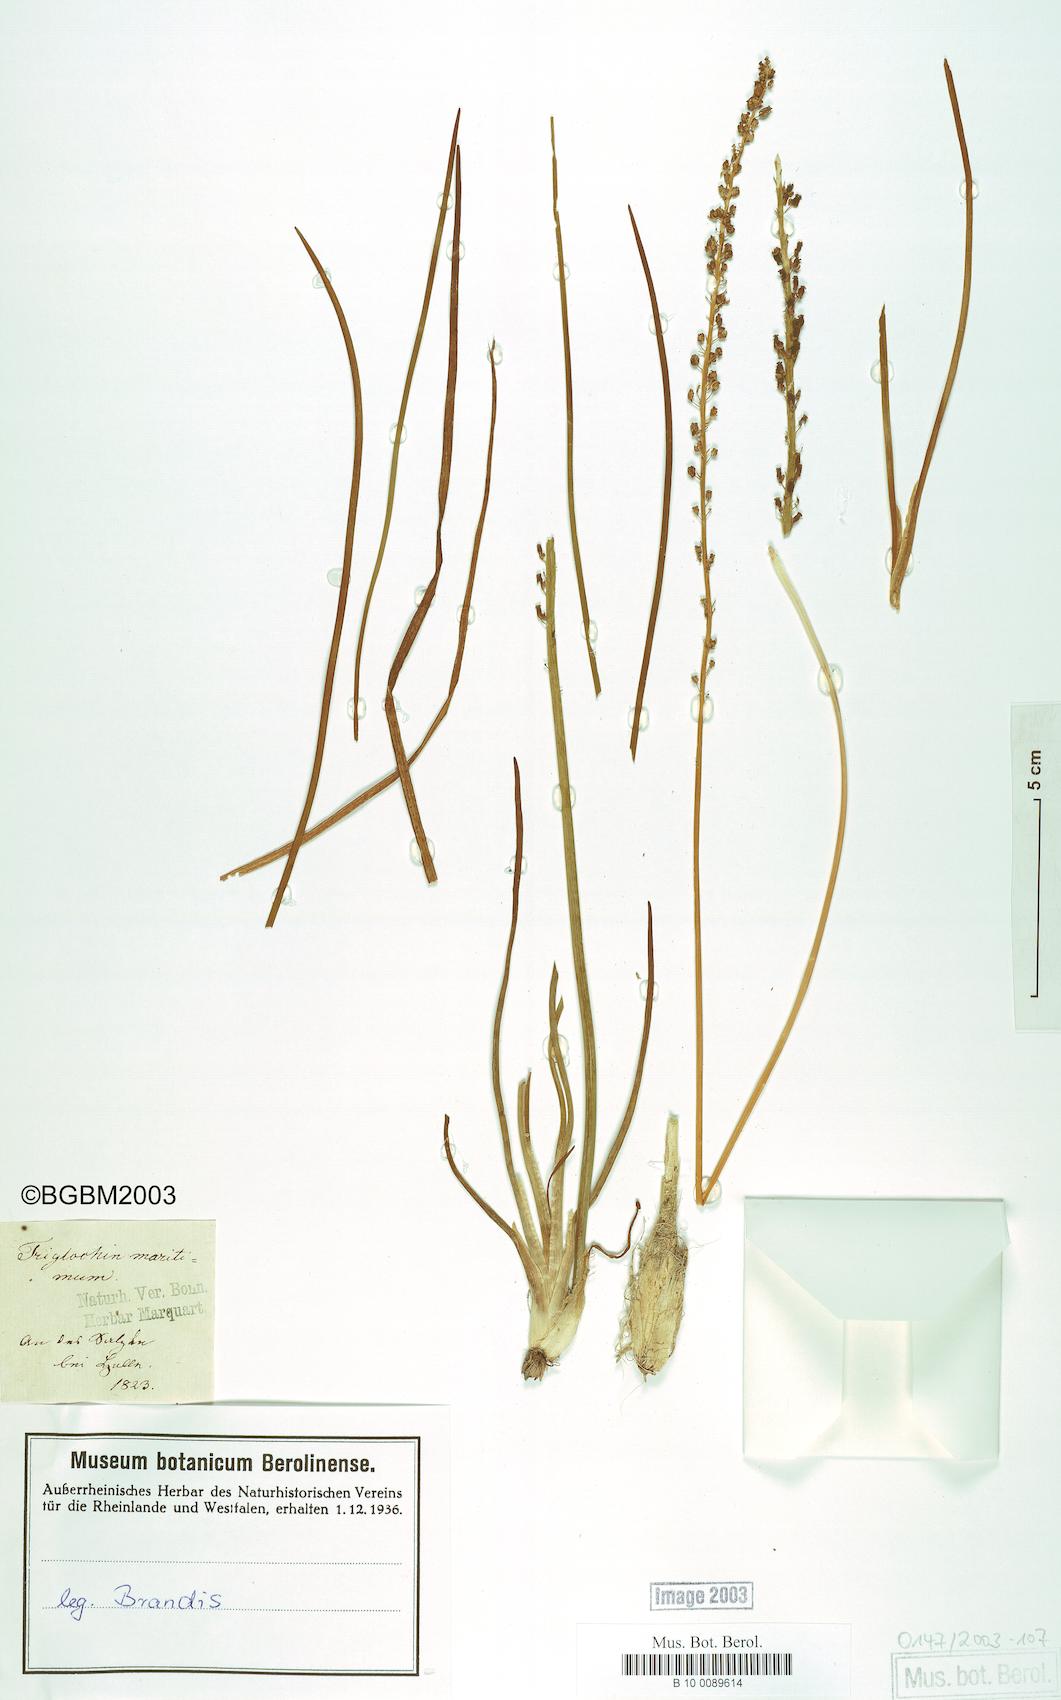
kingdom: Plantae
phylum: Tracheophyta
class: Liliopsida
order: Alismatales
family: Juncaginaceae
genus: Triglochin
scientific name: Triglochin maritima
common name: Sea arrowgrass
